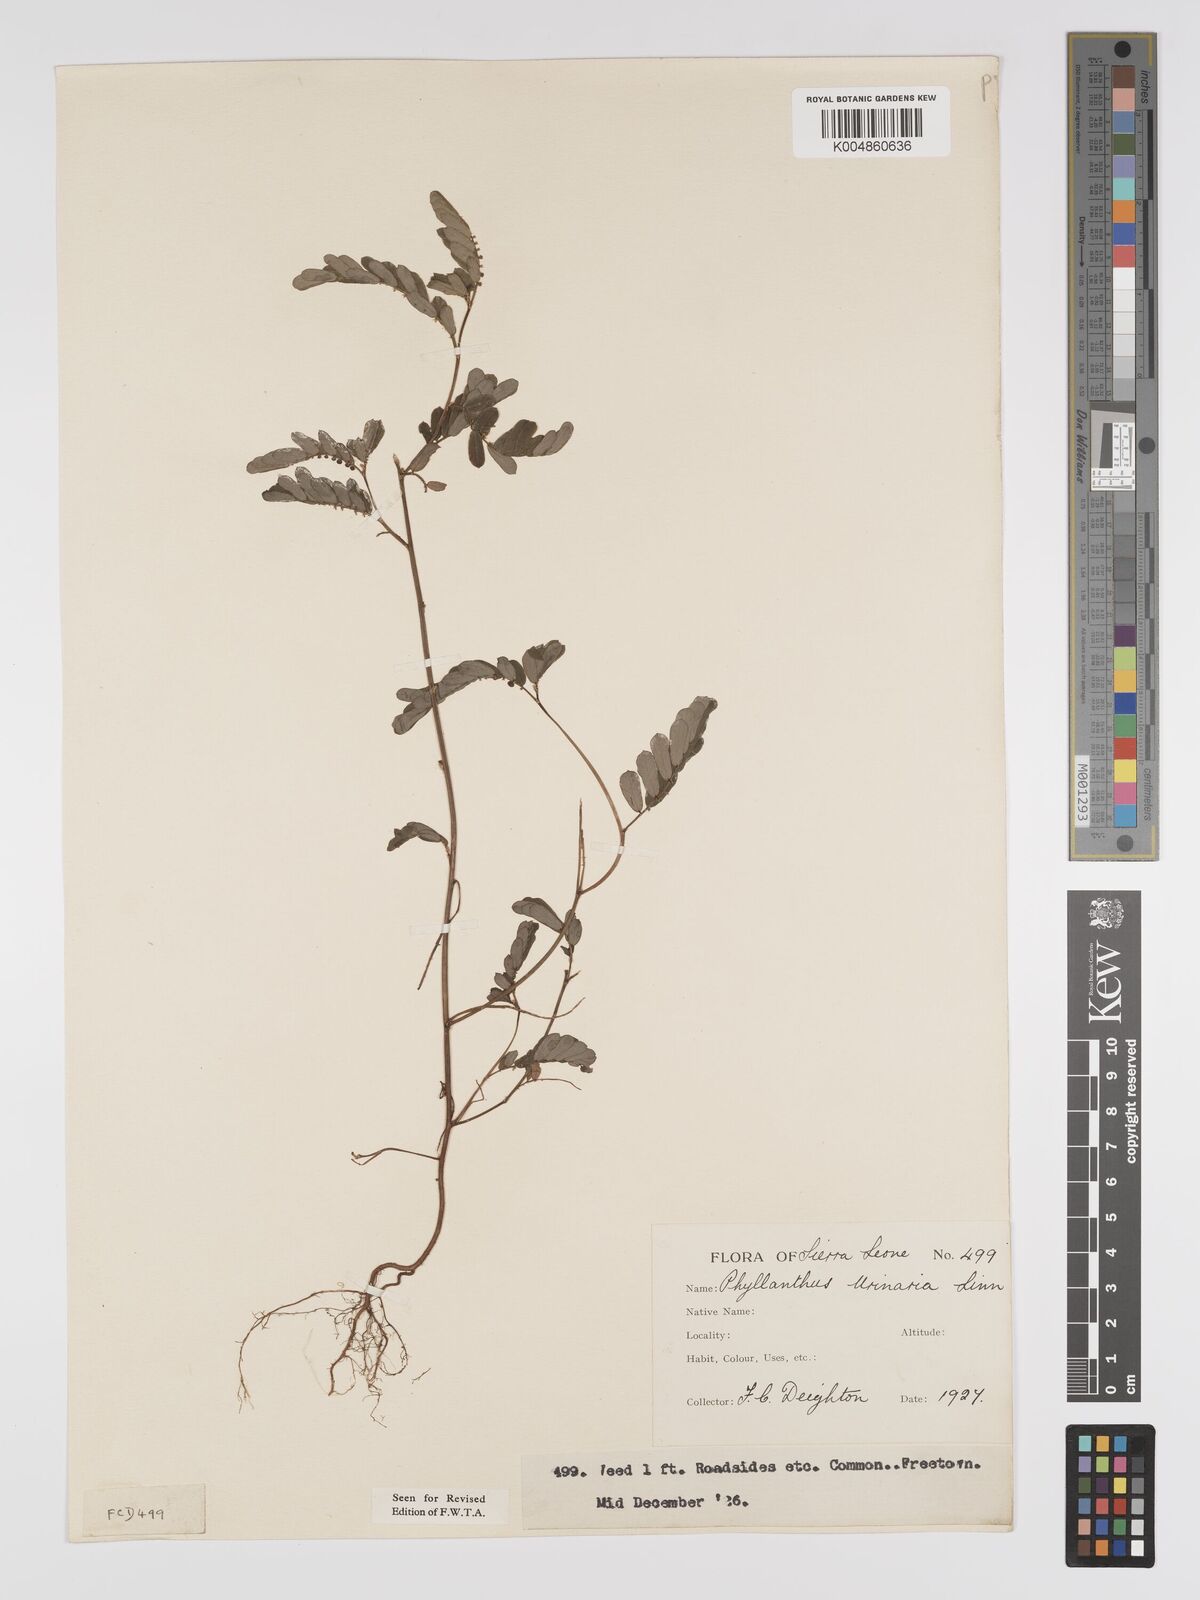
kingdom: Plantae
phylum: Tracheophyta
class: Magnoliopsida
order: Malpighiales
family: Phyllanthaceae
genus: Phyllanthus
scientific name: Phyllanthus urinaria
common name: Chamber bitter
